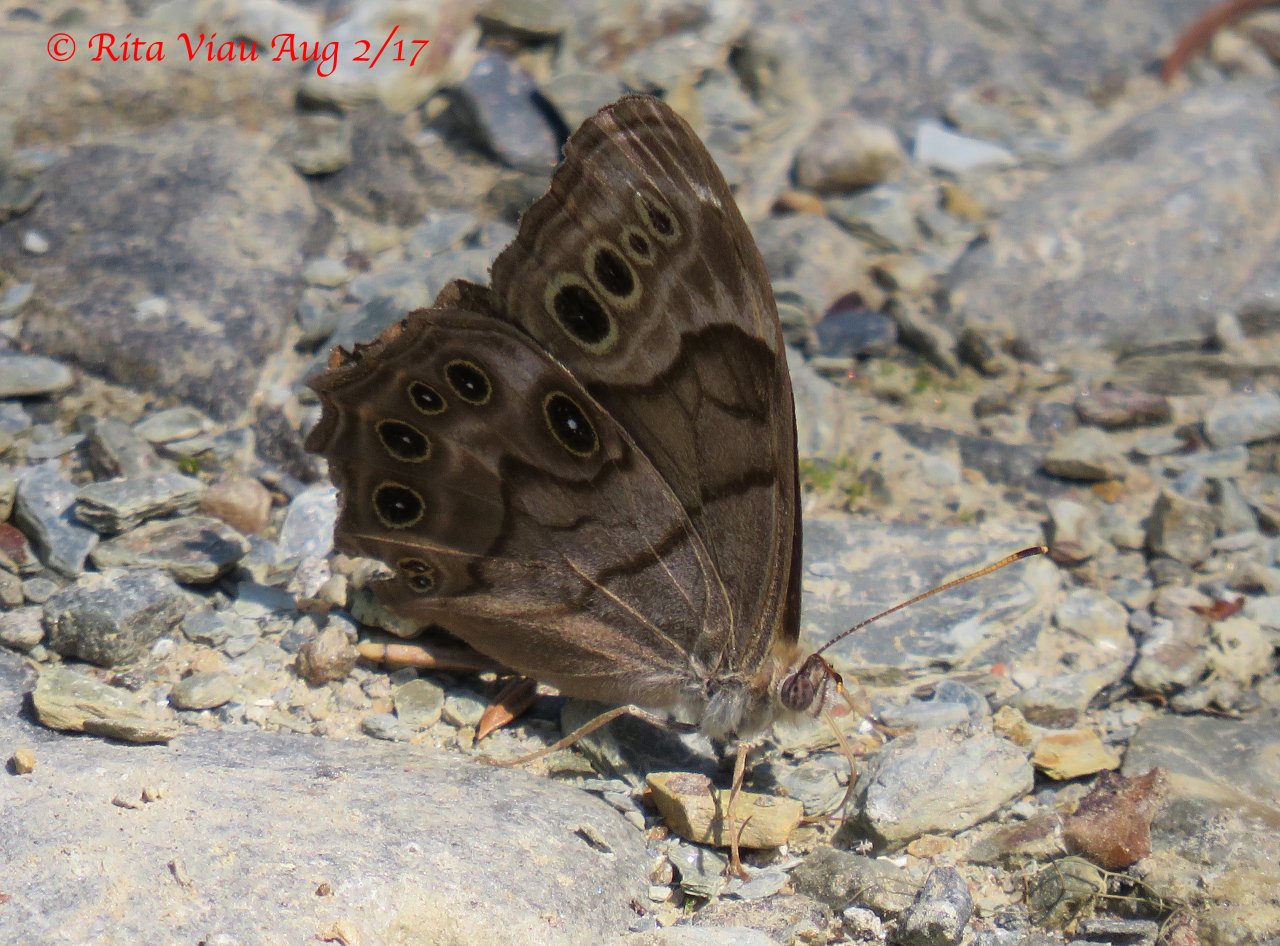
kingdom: Animalia
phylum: Arthropoda
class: Insecta
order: Lepidoptera
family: Nymphalidae
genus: Lethe
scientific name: Lethe anthedon
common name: Northern Pearly-Eye
